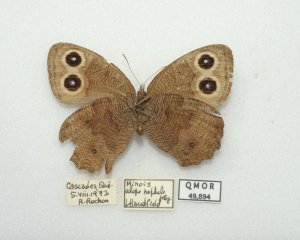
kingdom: Animalia
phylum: Arthropoda
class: Insecta
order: Lepidoptera
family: Nymphalidae
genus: Cercyonis
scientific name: Cercyonis pegala
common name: Common Wood-Nymph
